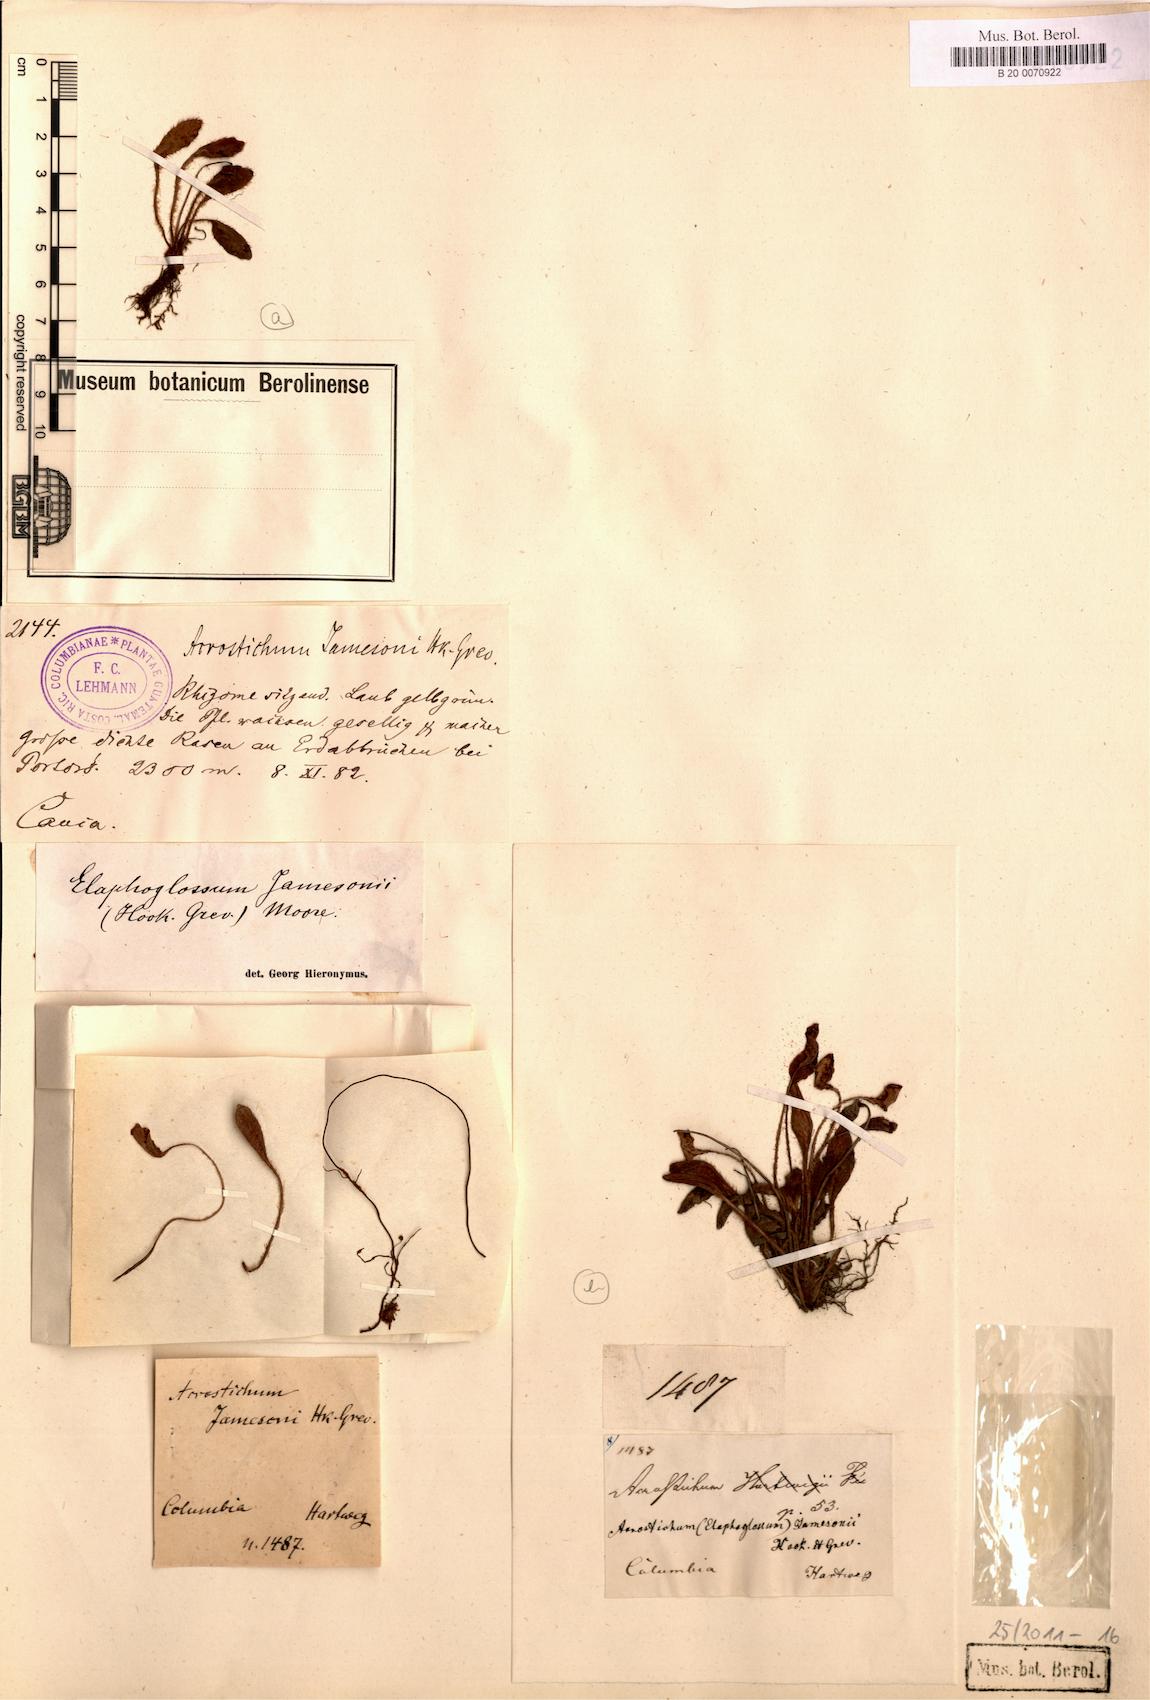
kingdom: Plantae
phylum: Tracheophyta
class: Polypodiopsida
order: Polypodiales
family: Dryopteridaceae
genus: Elaphoglossum
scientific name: Elaphoglossum piloselloides
